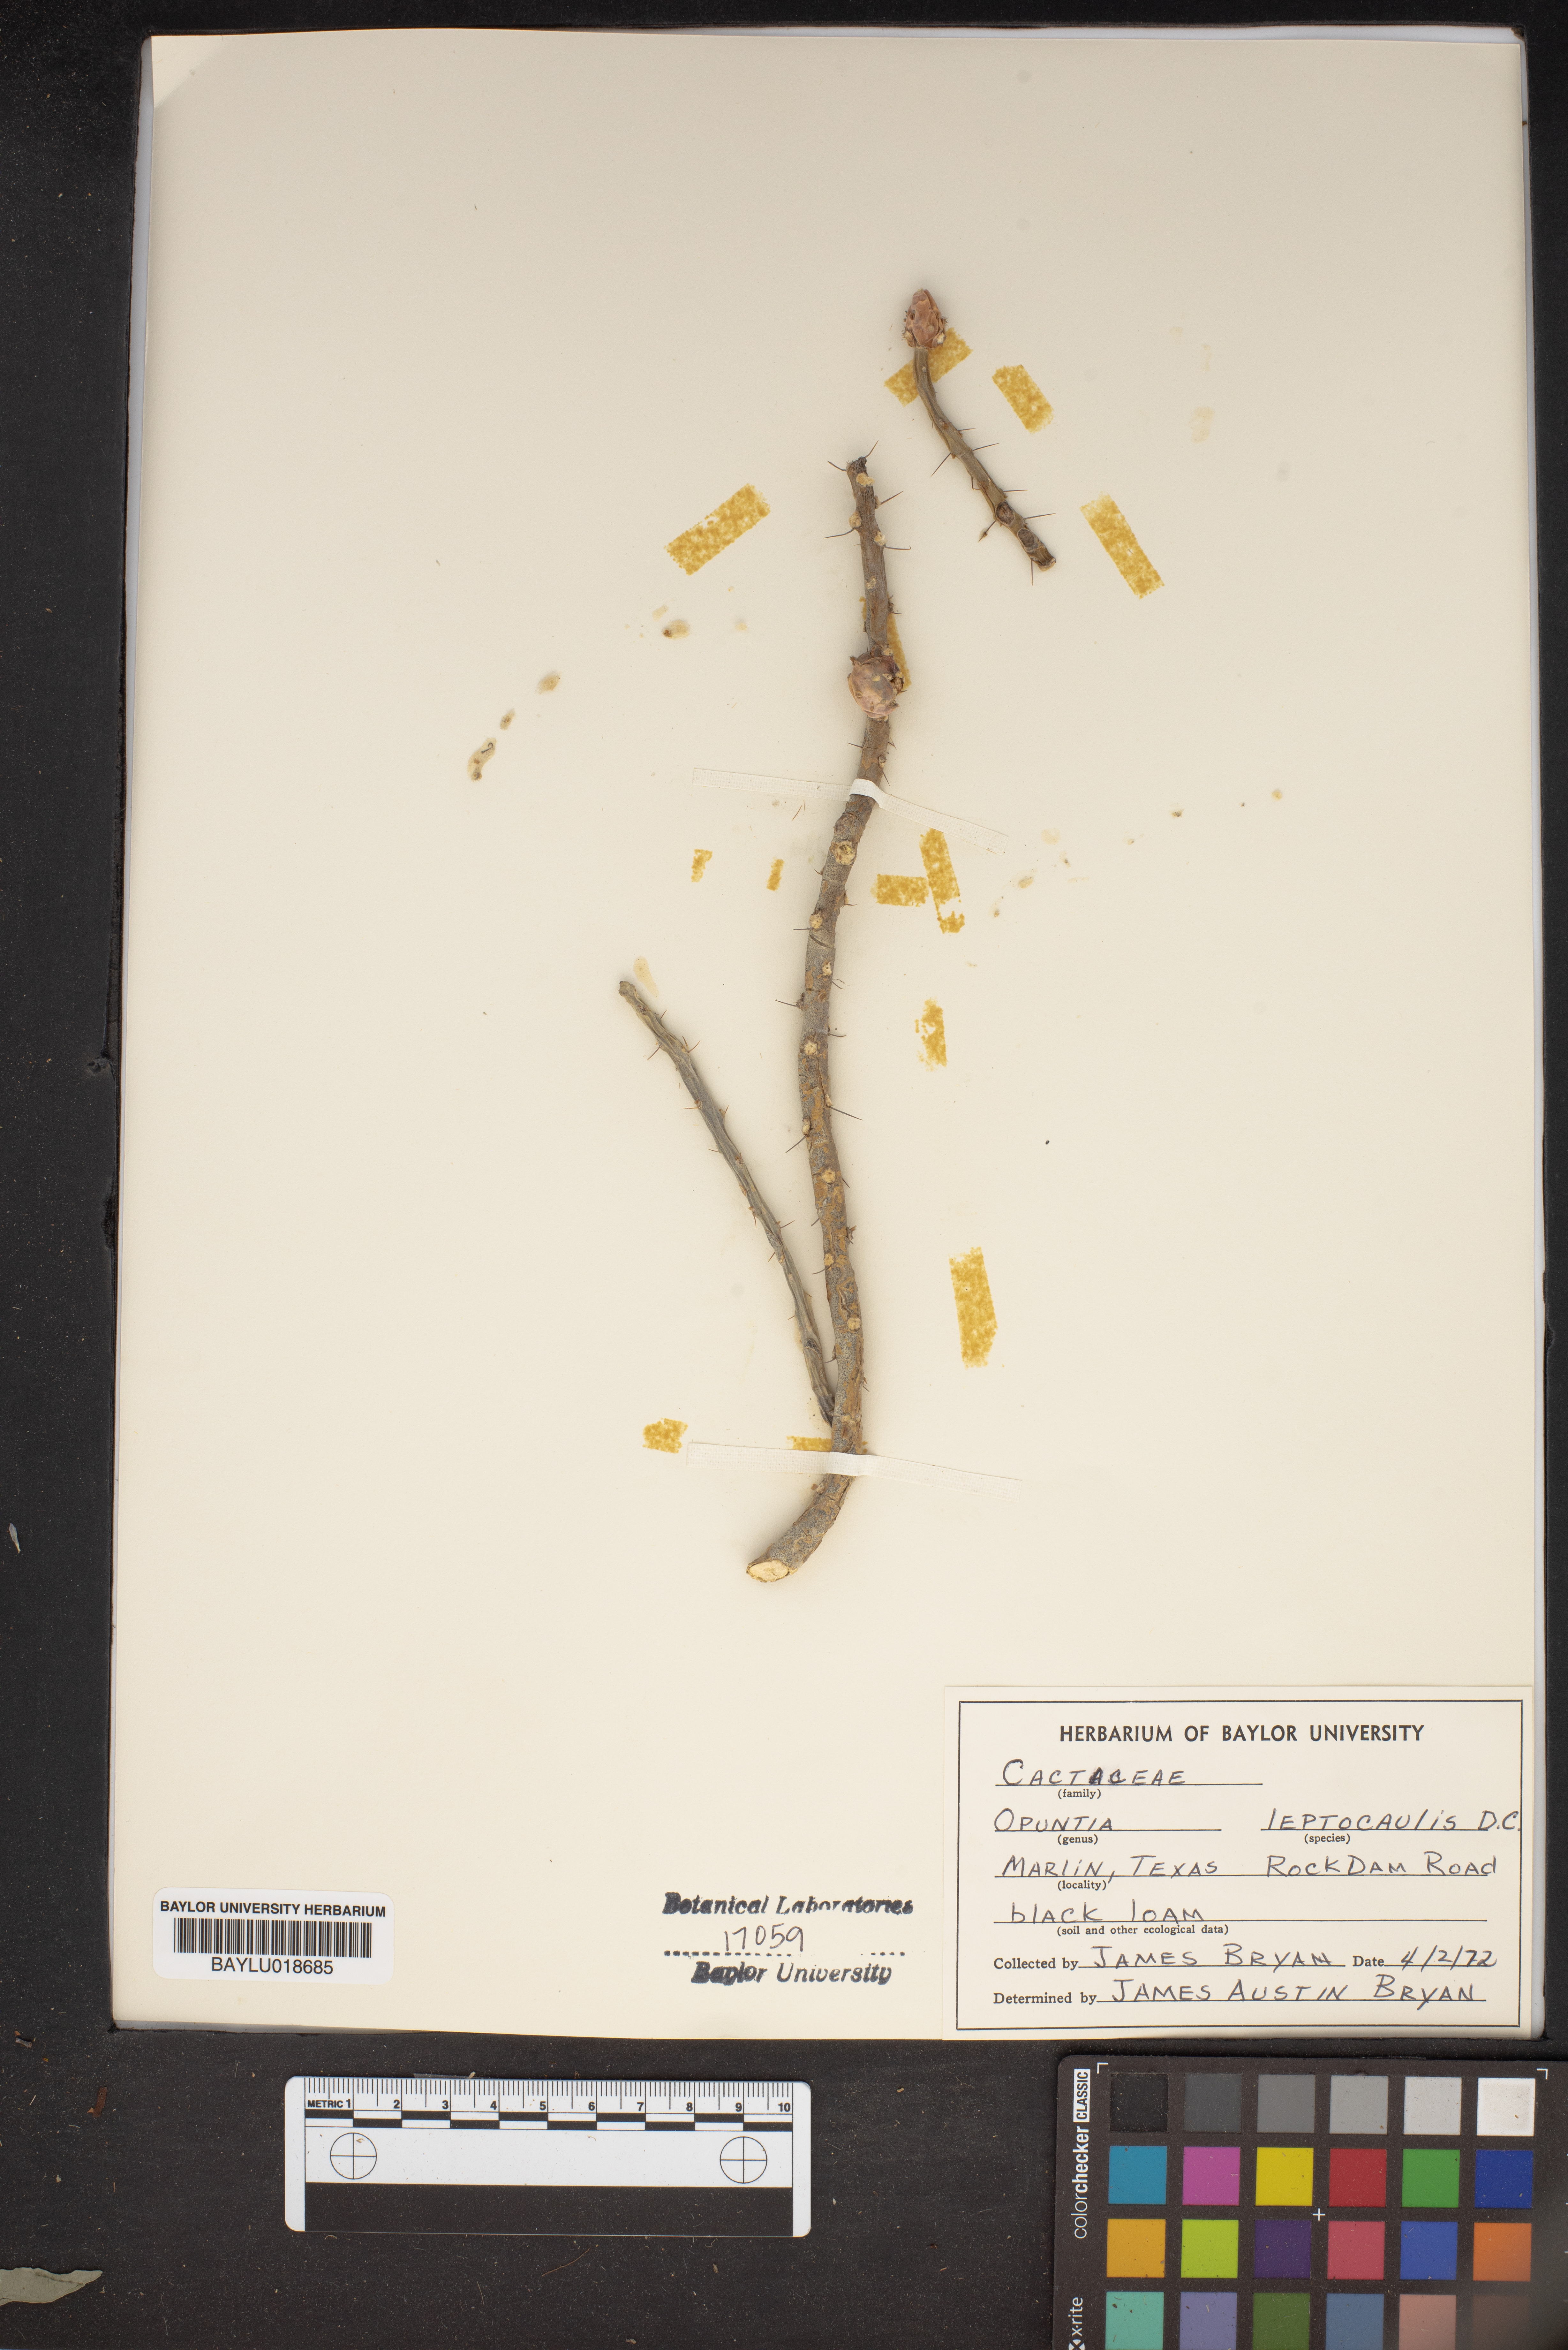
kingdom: Plantae
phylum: Tracheophyta
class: Magnoliopsida
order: Caryophyllales
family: Cactaceae
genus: Cylindropuntia
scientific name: Cylindropuntia leptocaulis
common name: Christmas cactus
